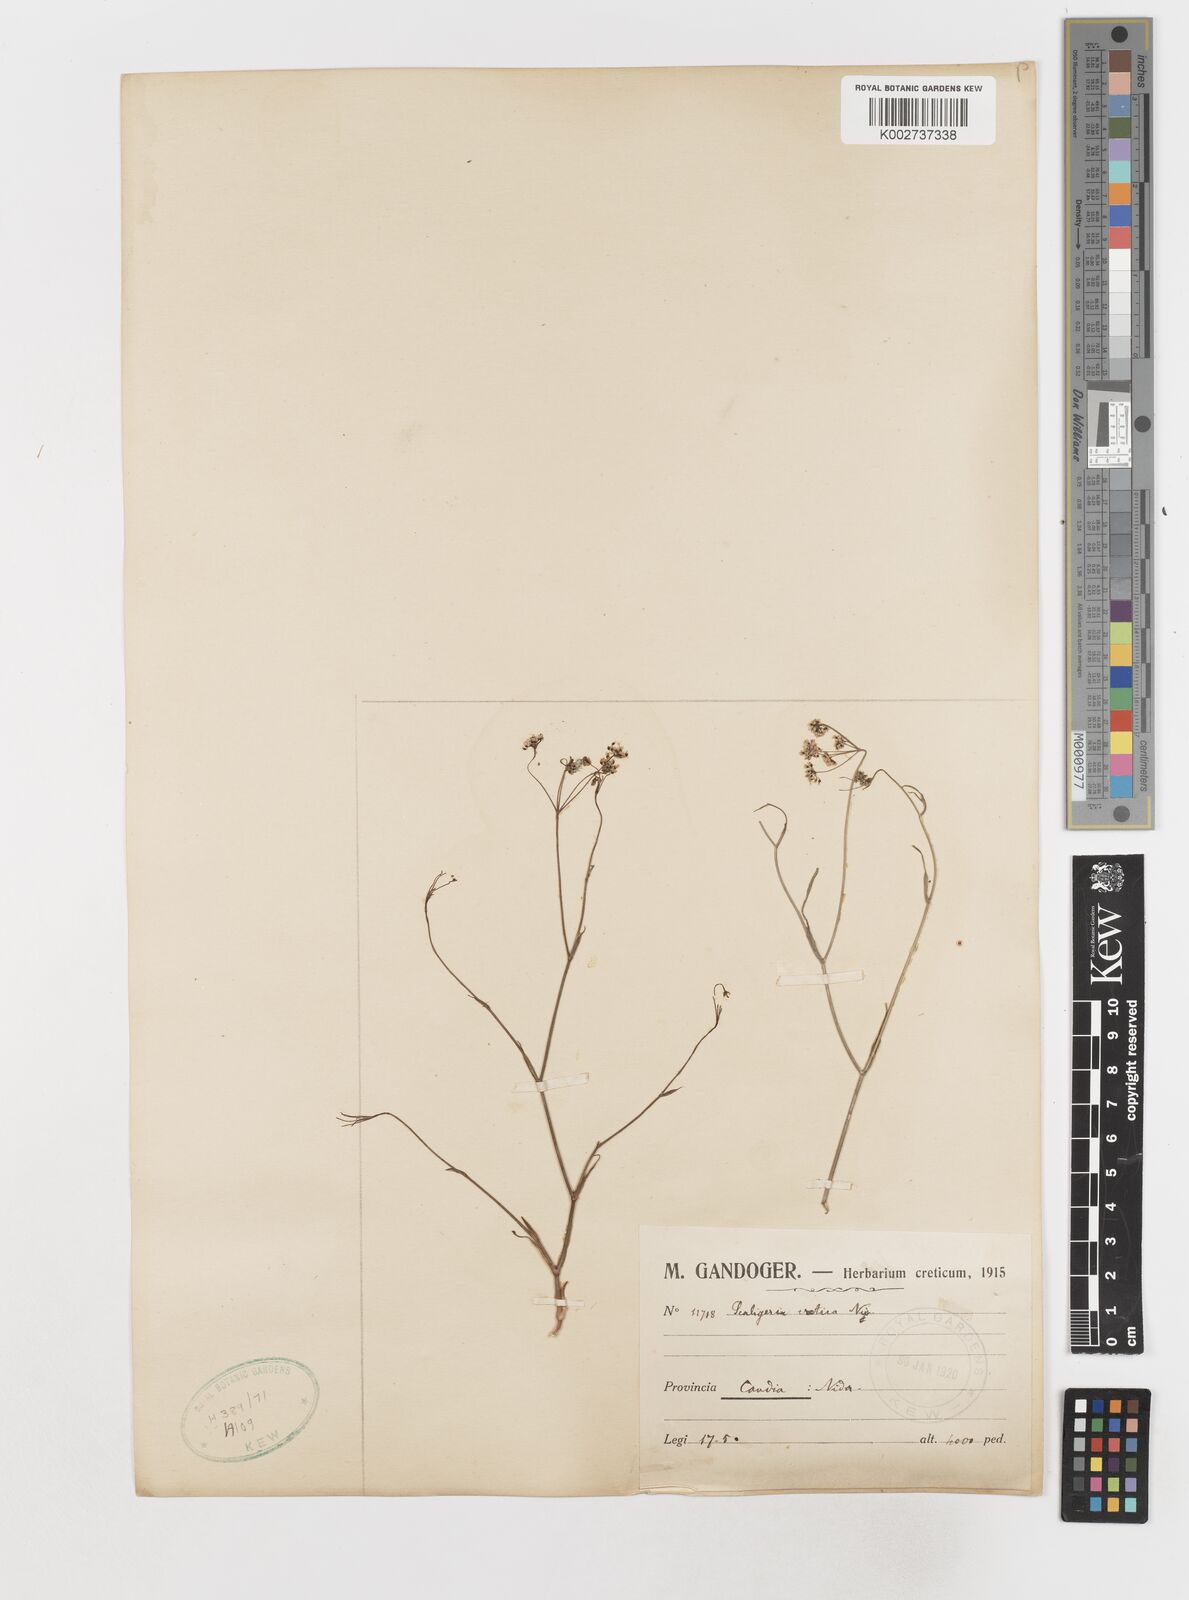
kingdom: Plantae
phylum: Tracheophyta
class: Magnoliopsida
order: Apiales
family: Apiaceae
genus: Scaligeria
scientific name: Scaligeria napiformis
